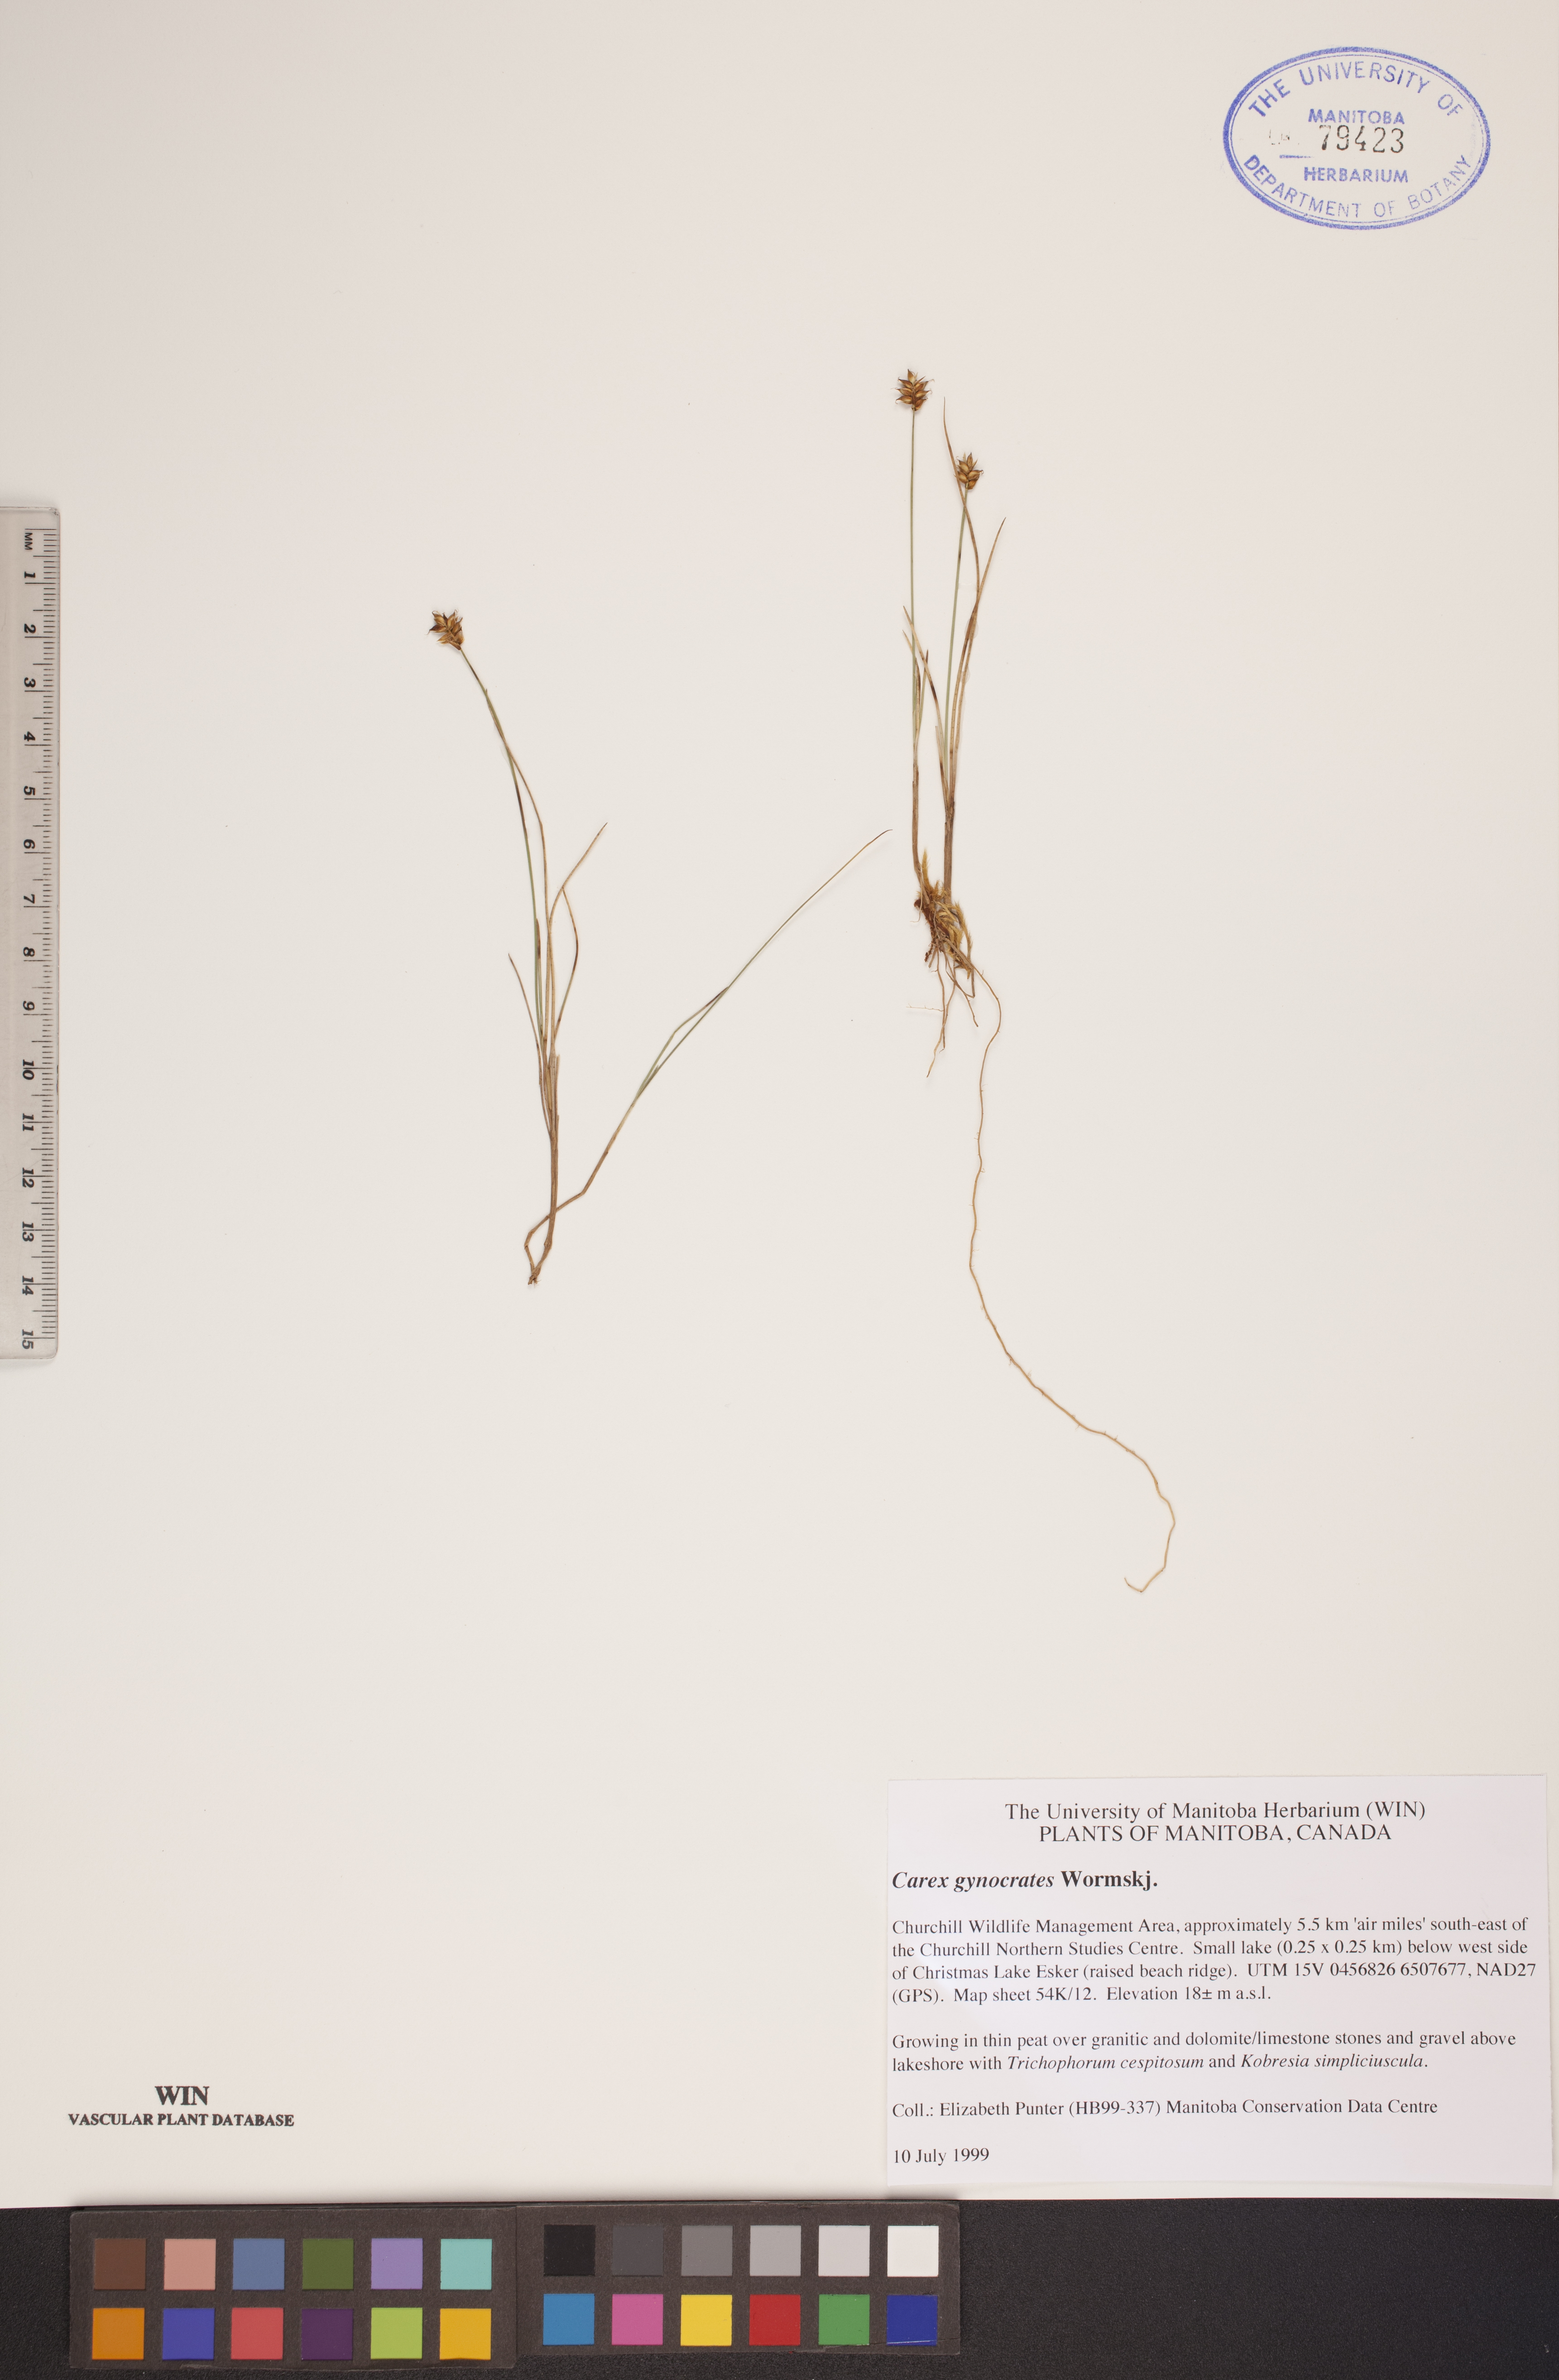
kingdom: Plantae
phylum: Tracheophyta
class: Liliopsida
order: Poales
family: Cyperaceae
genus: Carex
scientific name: Carex nardina
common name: Nard sedge
